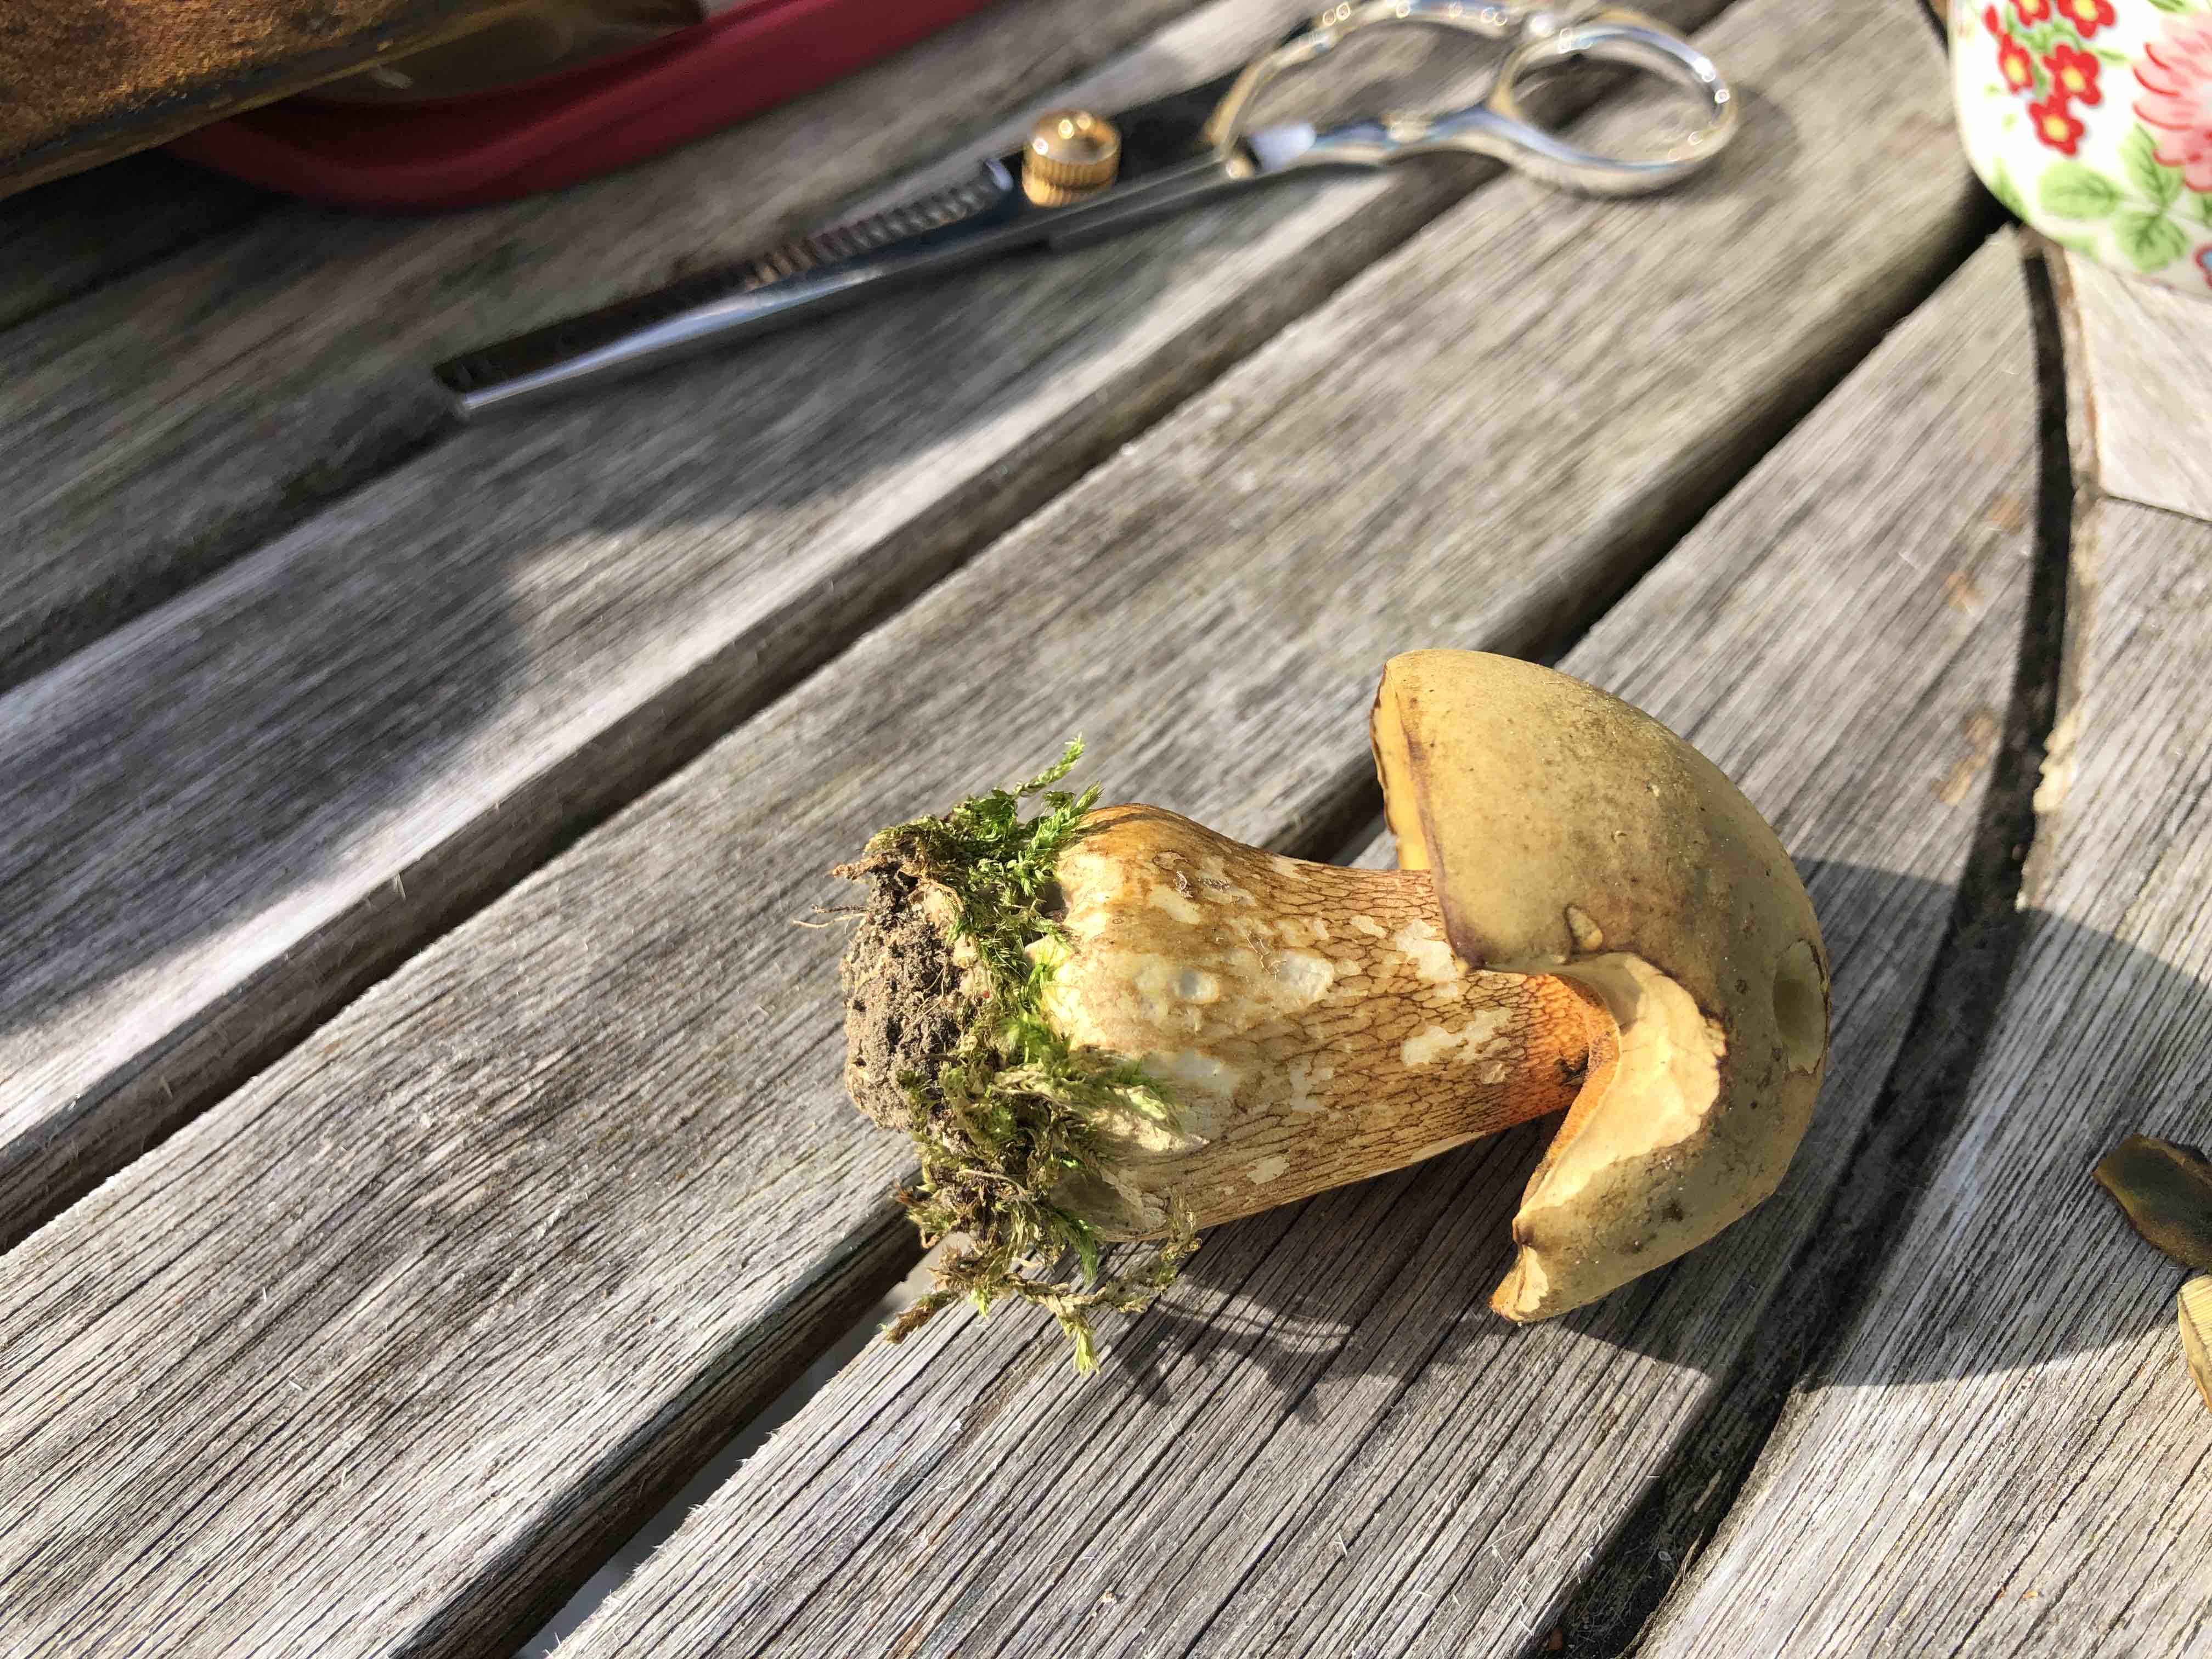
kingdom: Fungi
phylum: Basidiomycota
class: Agaricomycetes
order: Boletales
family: Boletaceae
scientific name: Boletaceae
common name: rørhatfamilien
